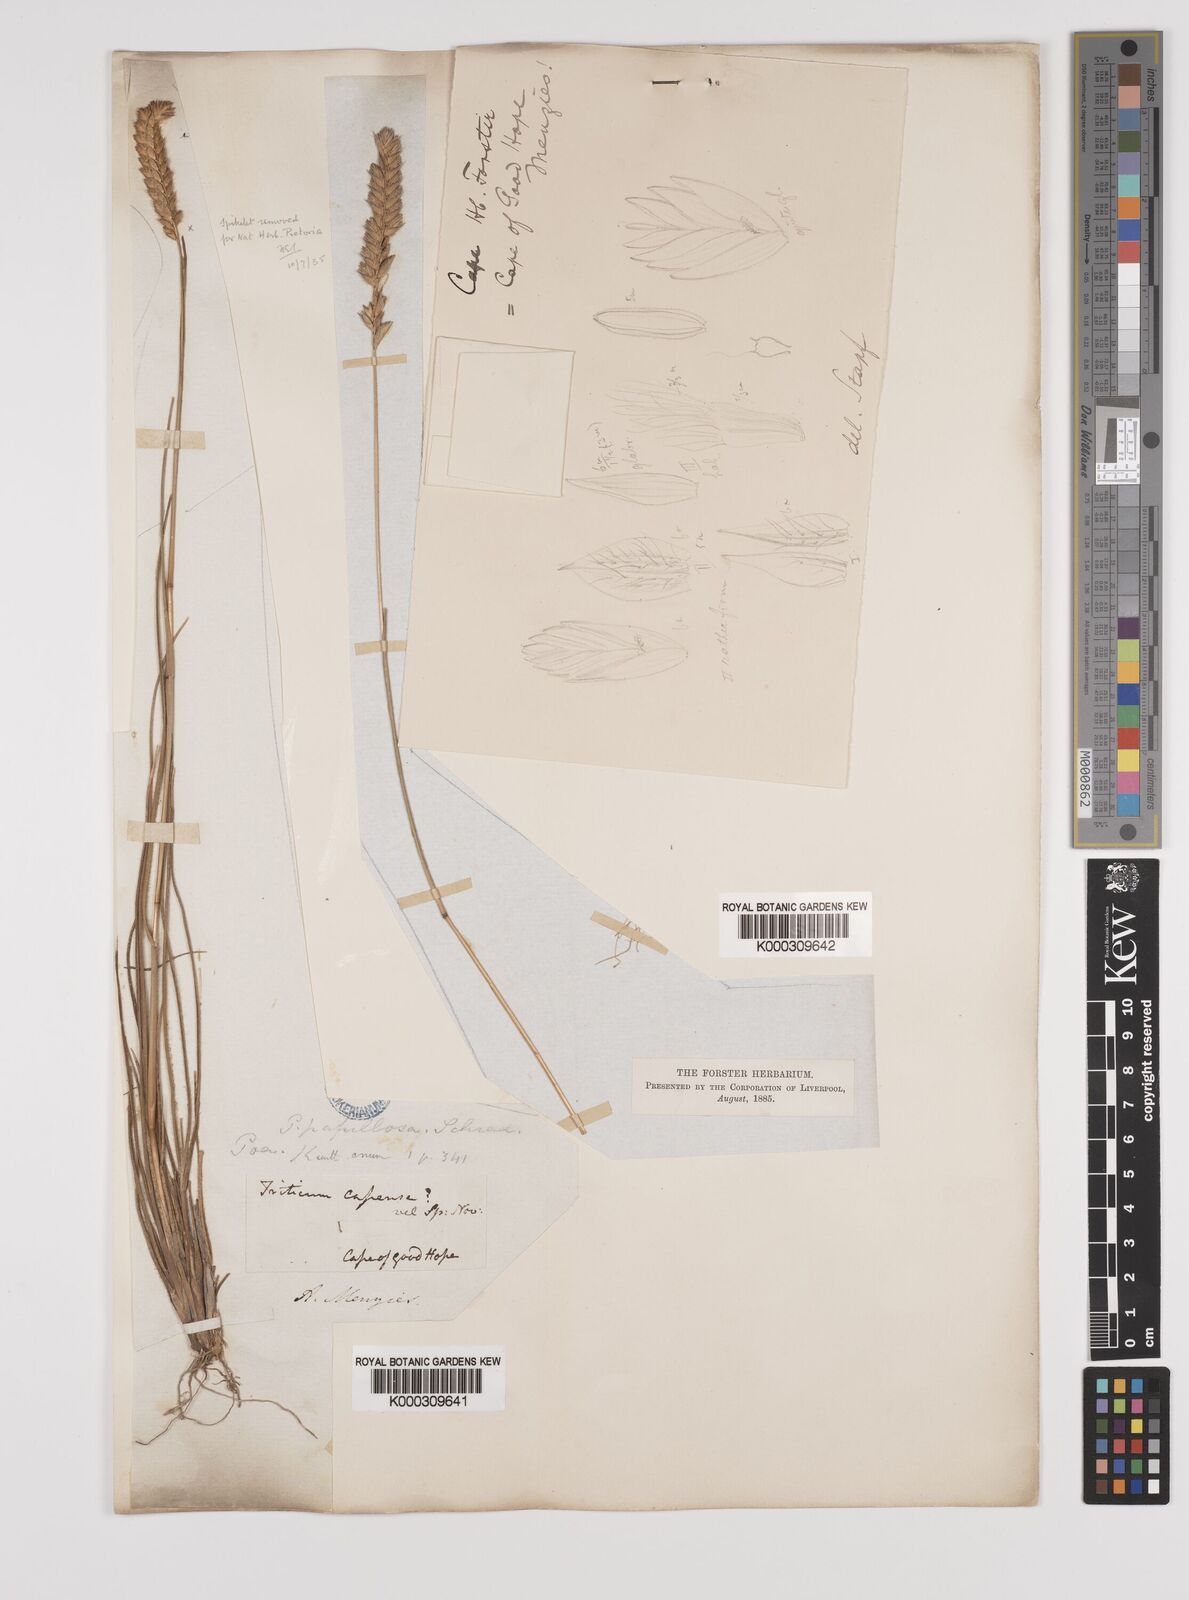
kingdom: Plantae
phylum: Tracheophyta
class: Liliopsida
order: Poales
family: Poaceae
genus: Tribolium
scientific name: Tribolium uniolae
